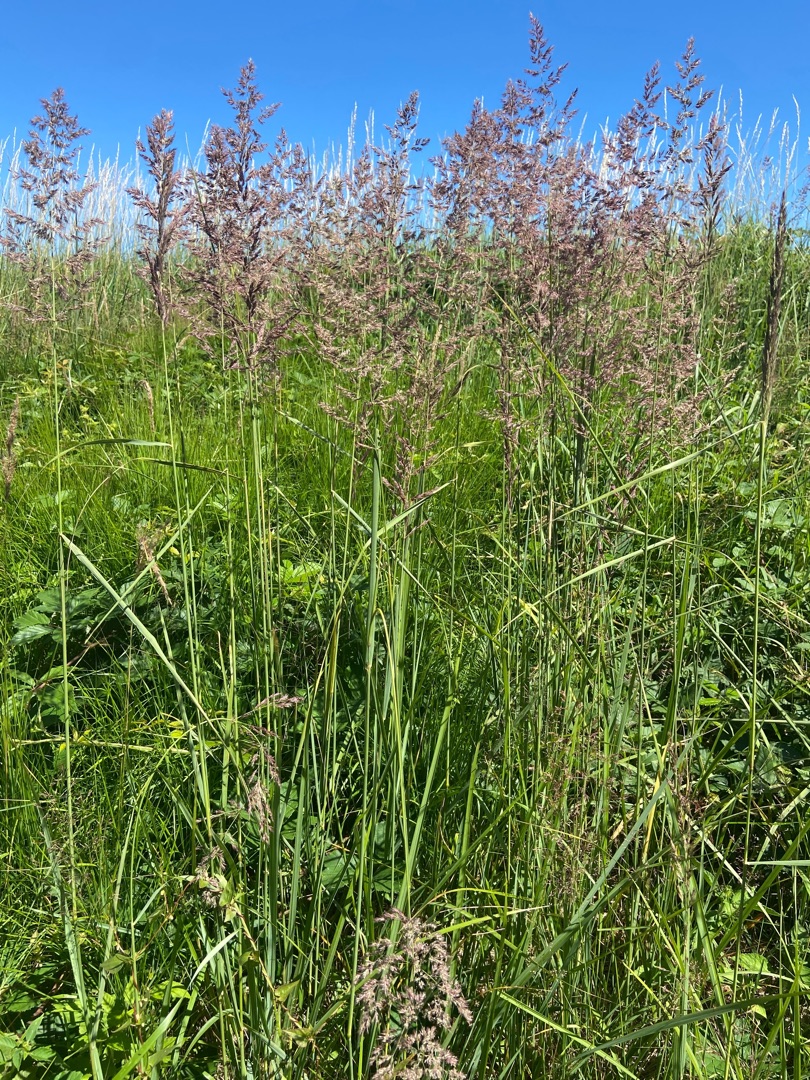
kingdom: Plantae
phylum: Tracheophyta
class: Liliopsida
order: Poales
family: Poaceae
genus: Calamagrostis
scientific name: Calamagrostis epigejos
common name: Bjerg-rørhvene
